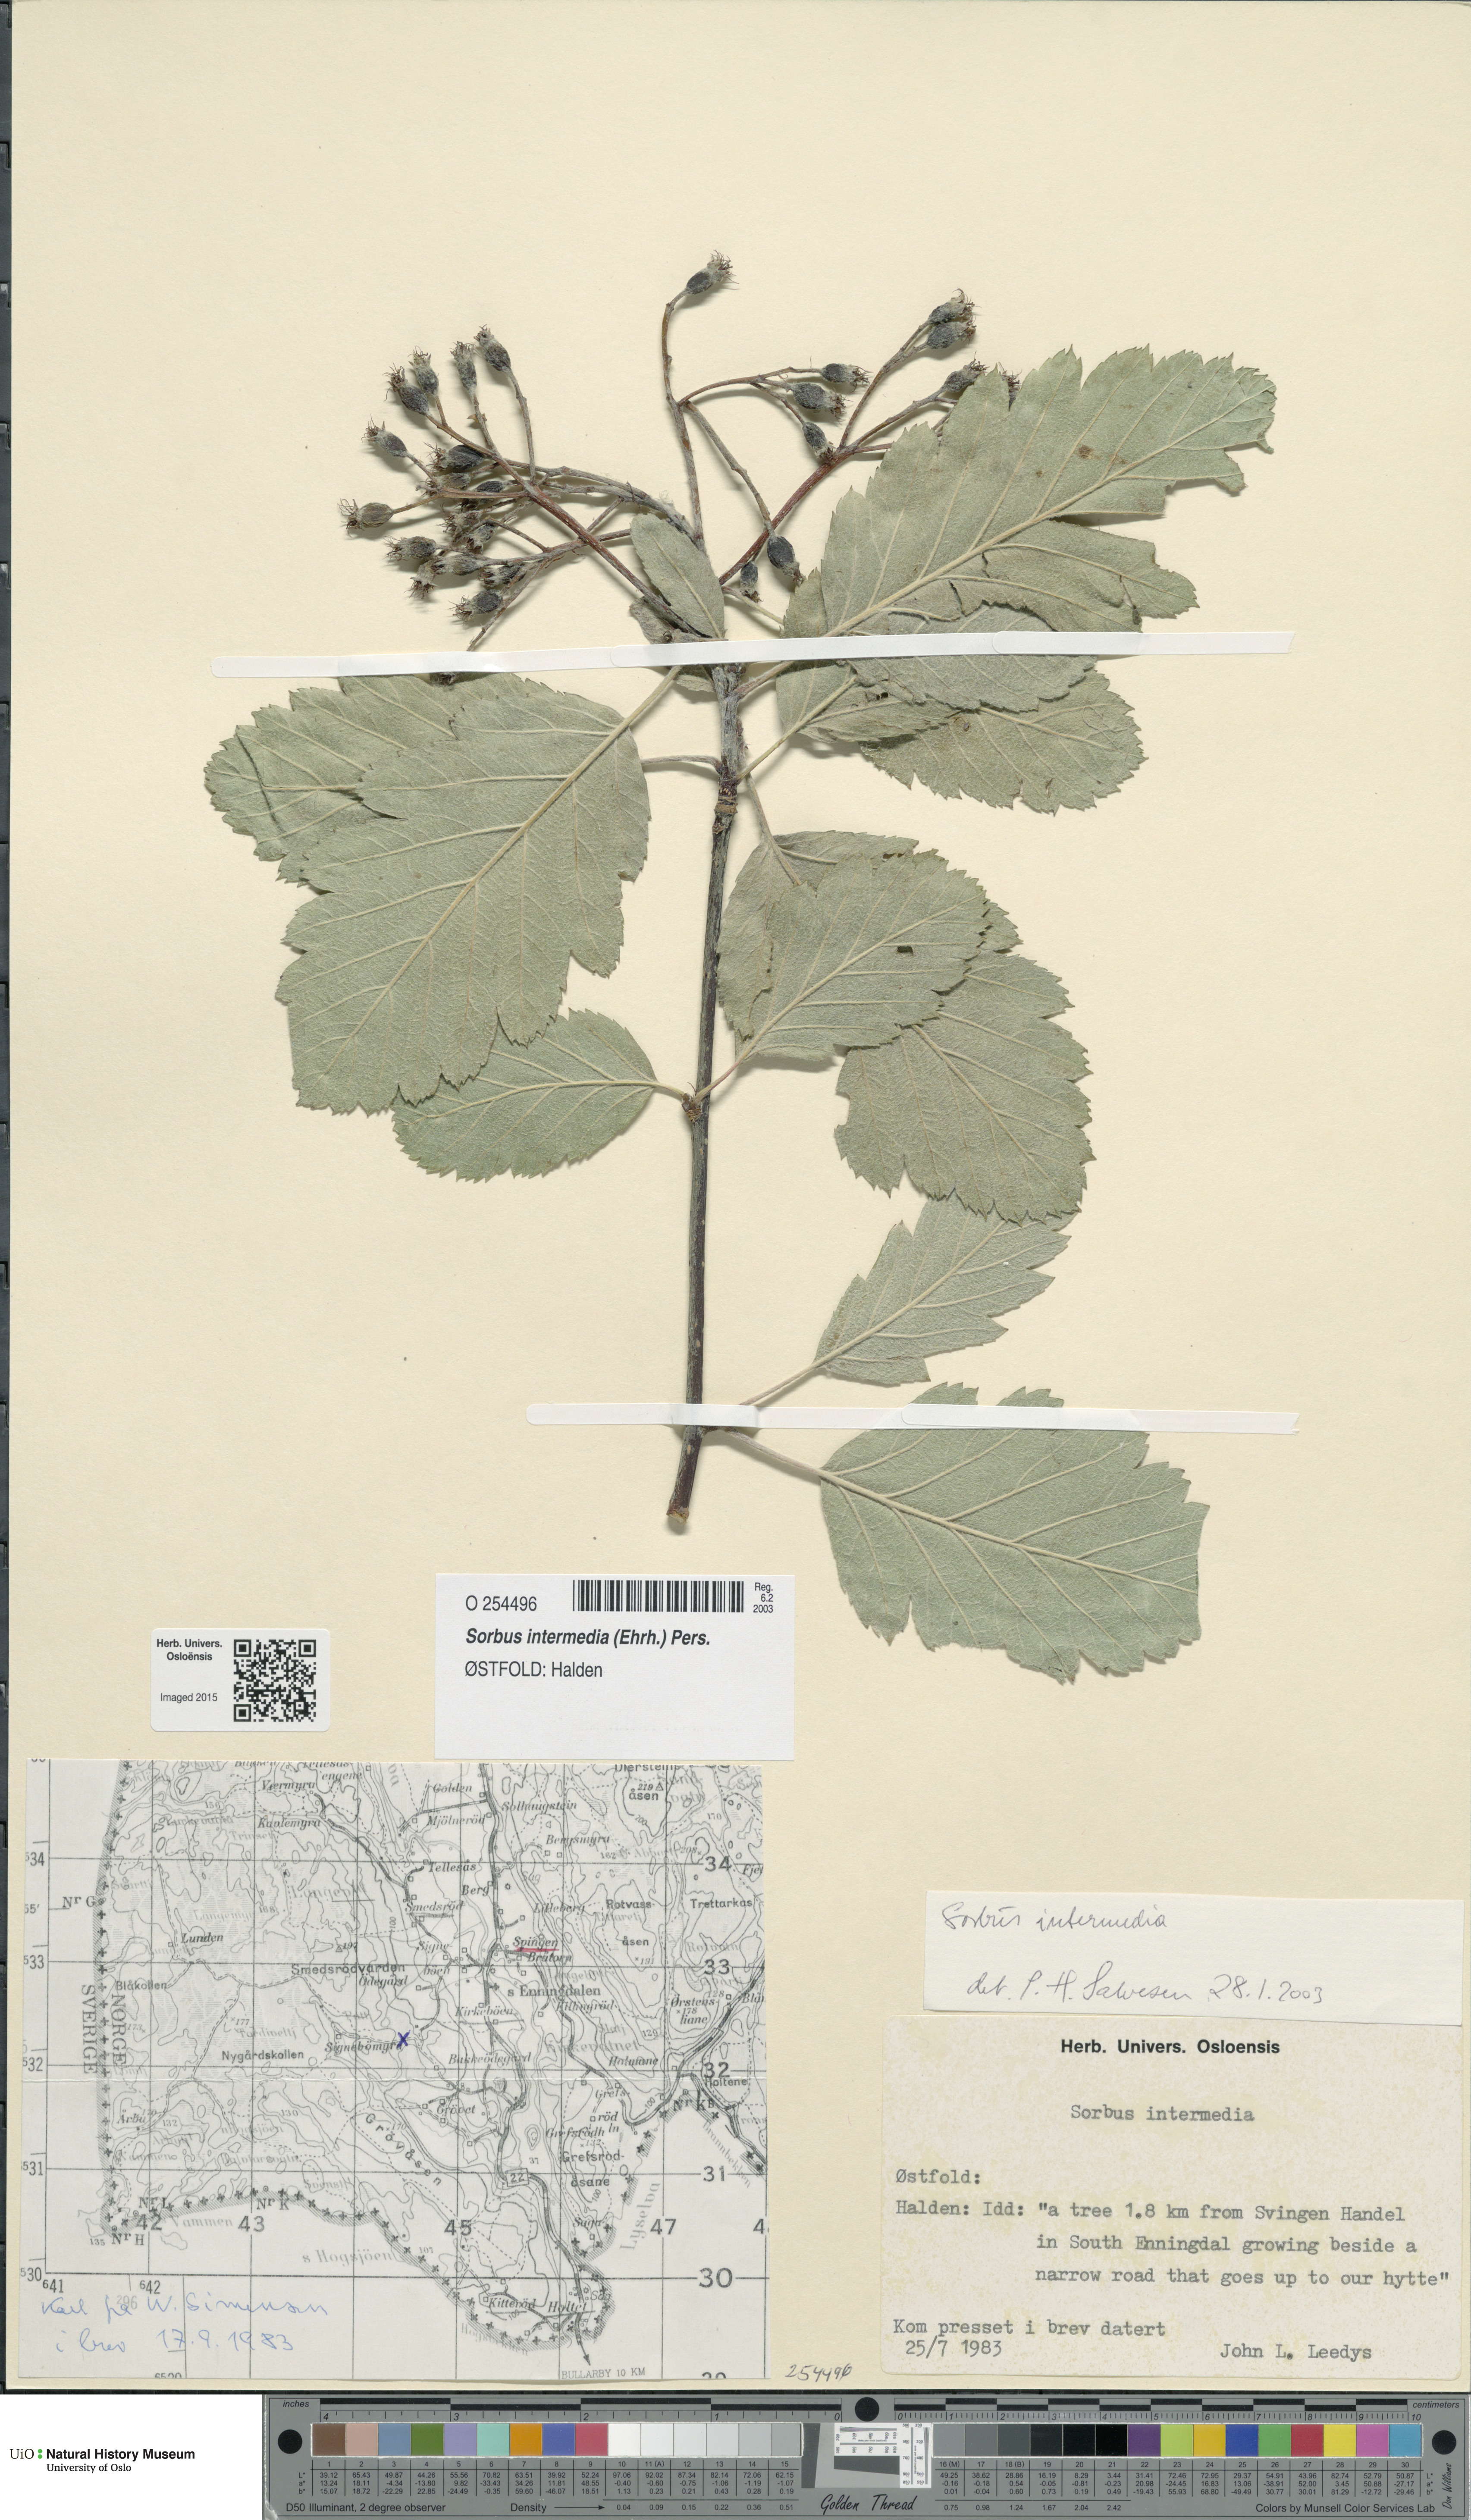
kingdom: Plantae
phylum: Tracheophyta
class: Magnoliopsida
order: Rosales
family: Rosaceae
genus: Scandosorbus
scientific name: Scandosorbus intermedia
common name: Swedish whitebeam
